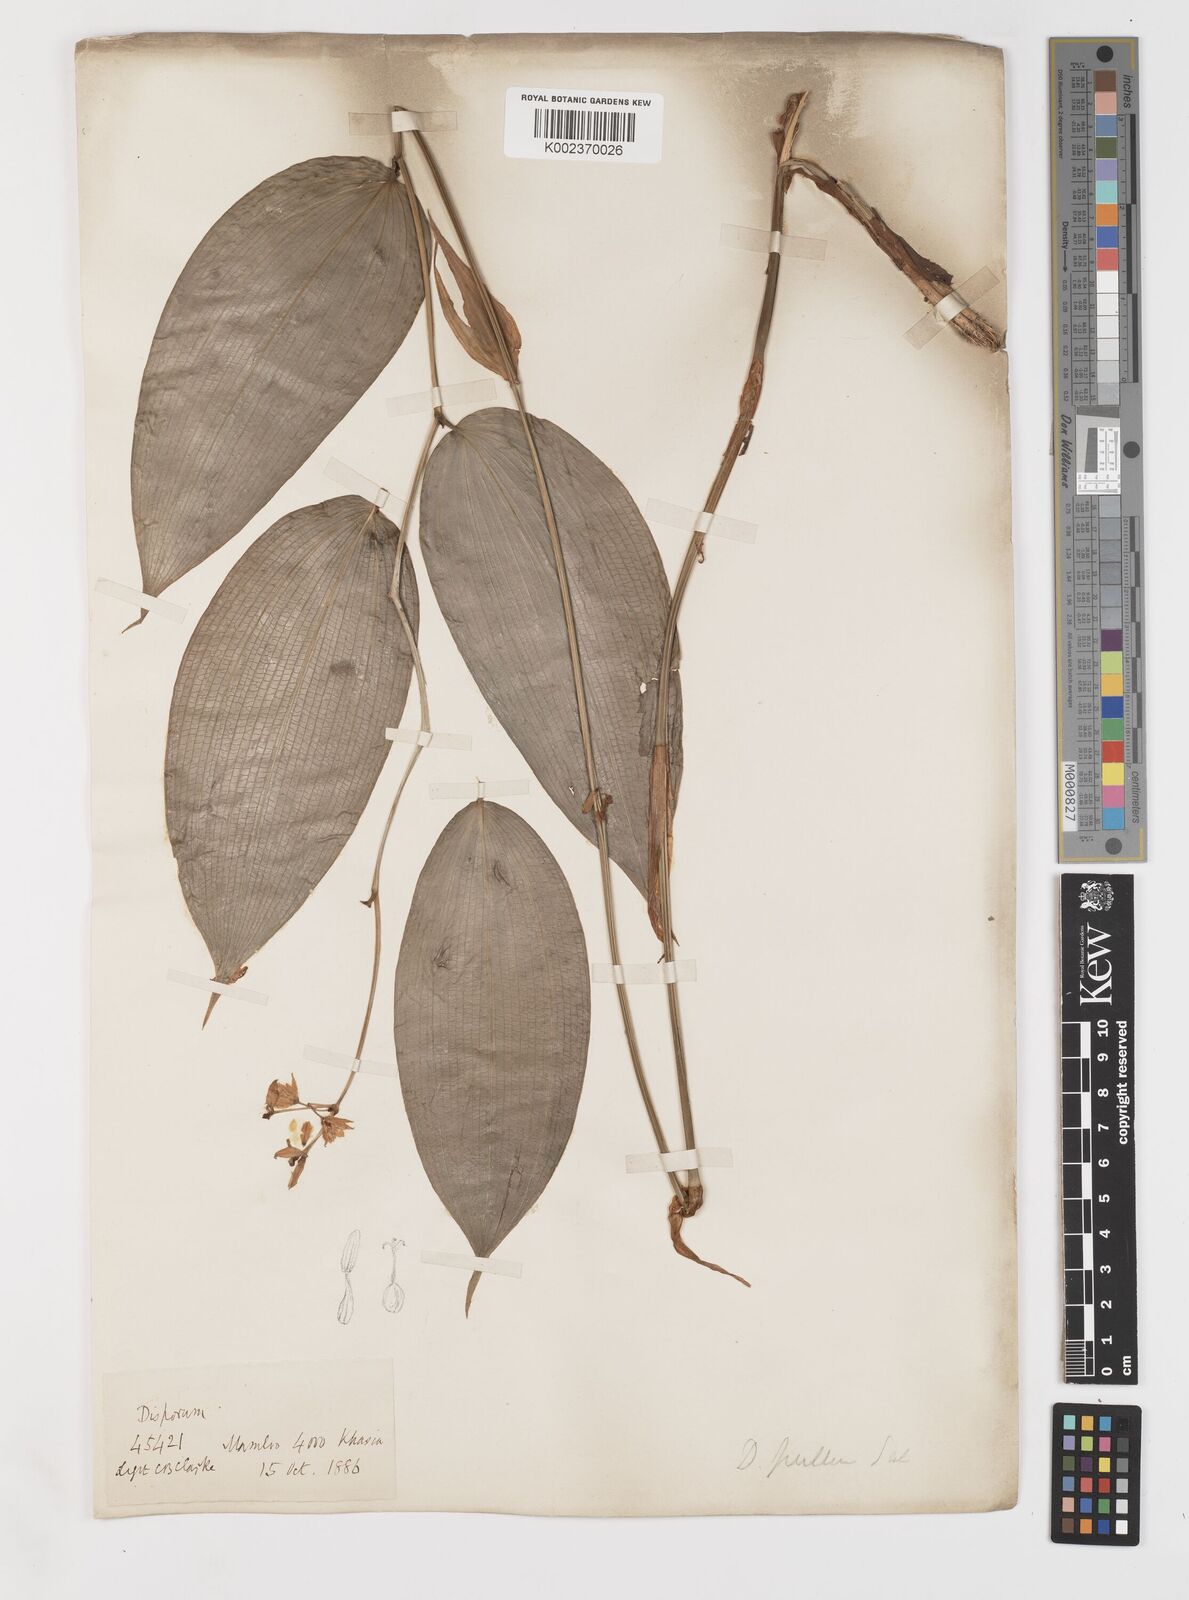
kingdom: Plantae
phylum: Tracheophyta
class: Liliopsida
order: Liliales
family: Colchicaceae
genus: Disporum
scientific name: Disporum cantoniense
